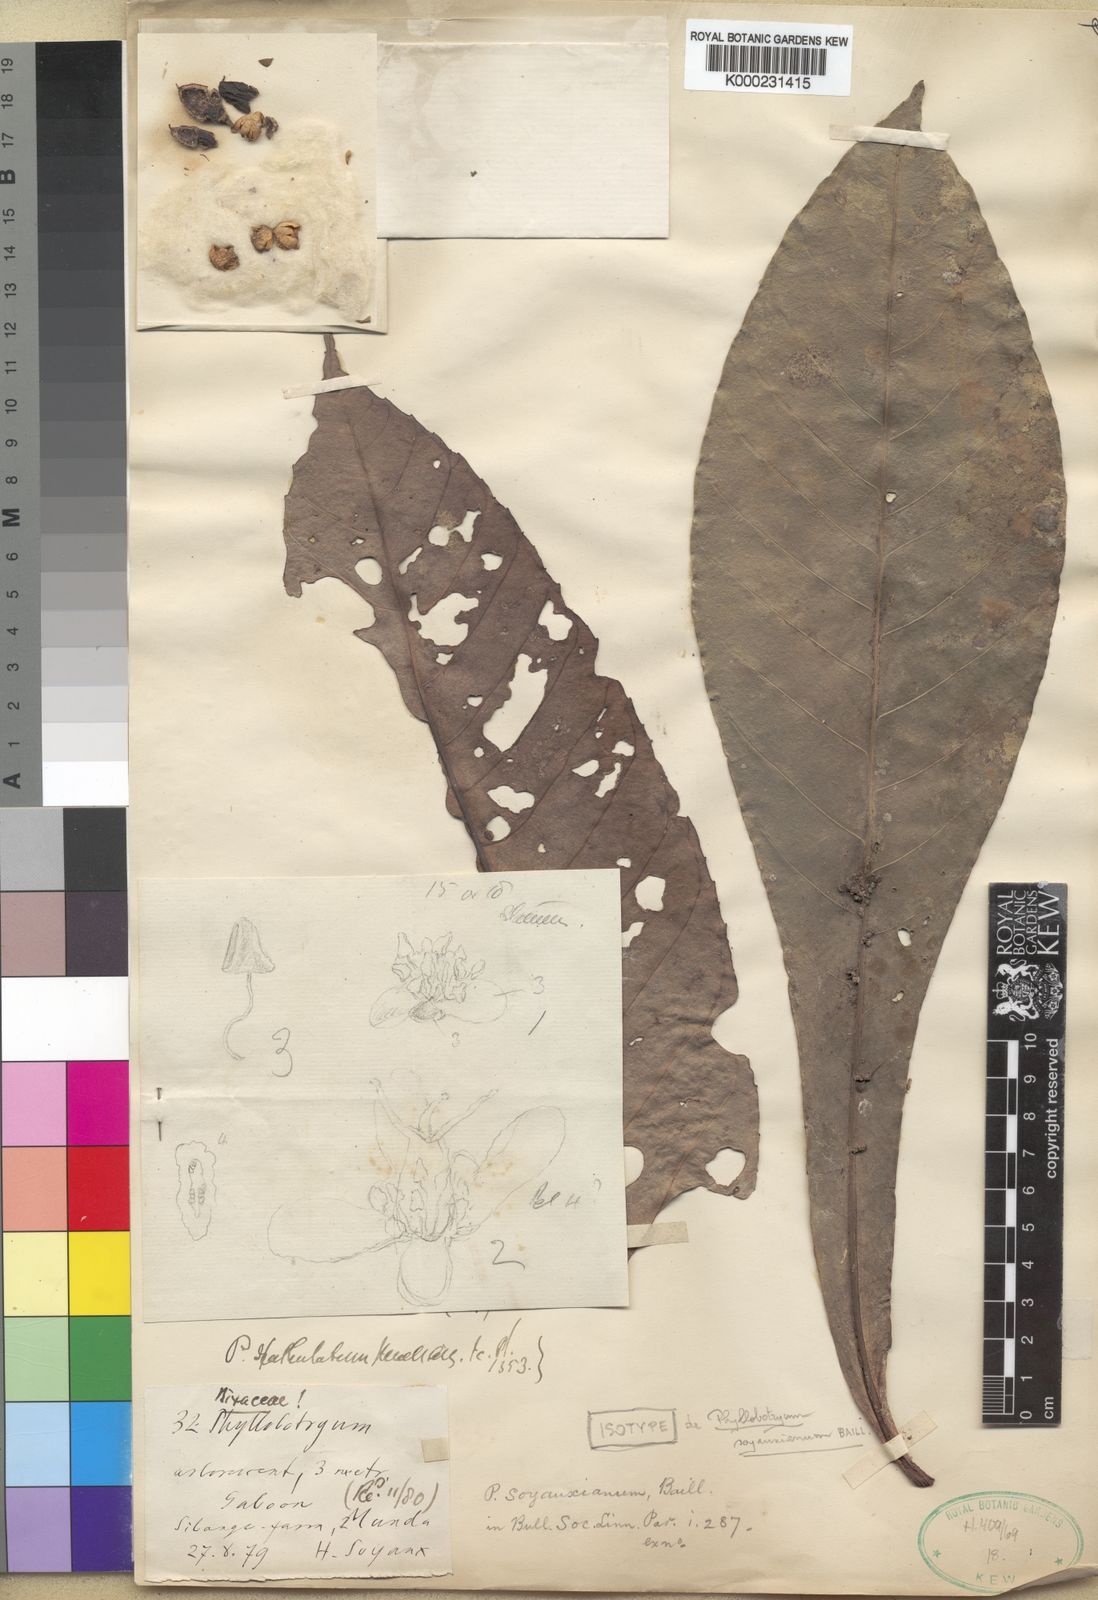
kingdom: Plantae
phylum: Tracheophyta
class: Magnoliopsida
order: Malpighiales
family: Salicaceae
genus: Phyllobotryon
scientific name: Phyllobotryon
